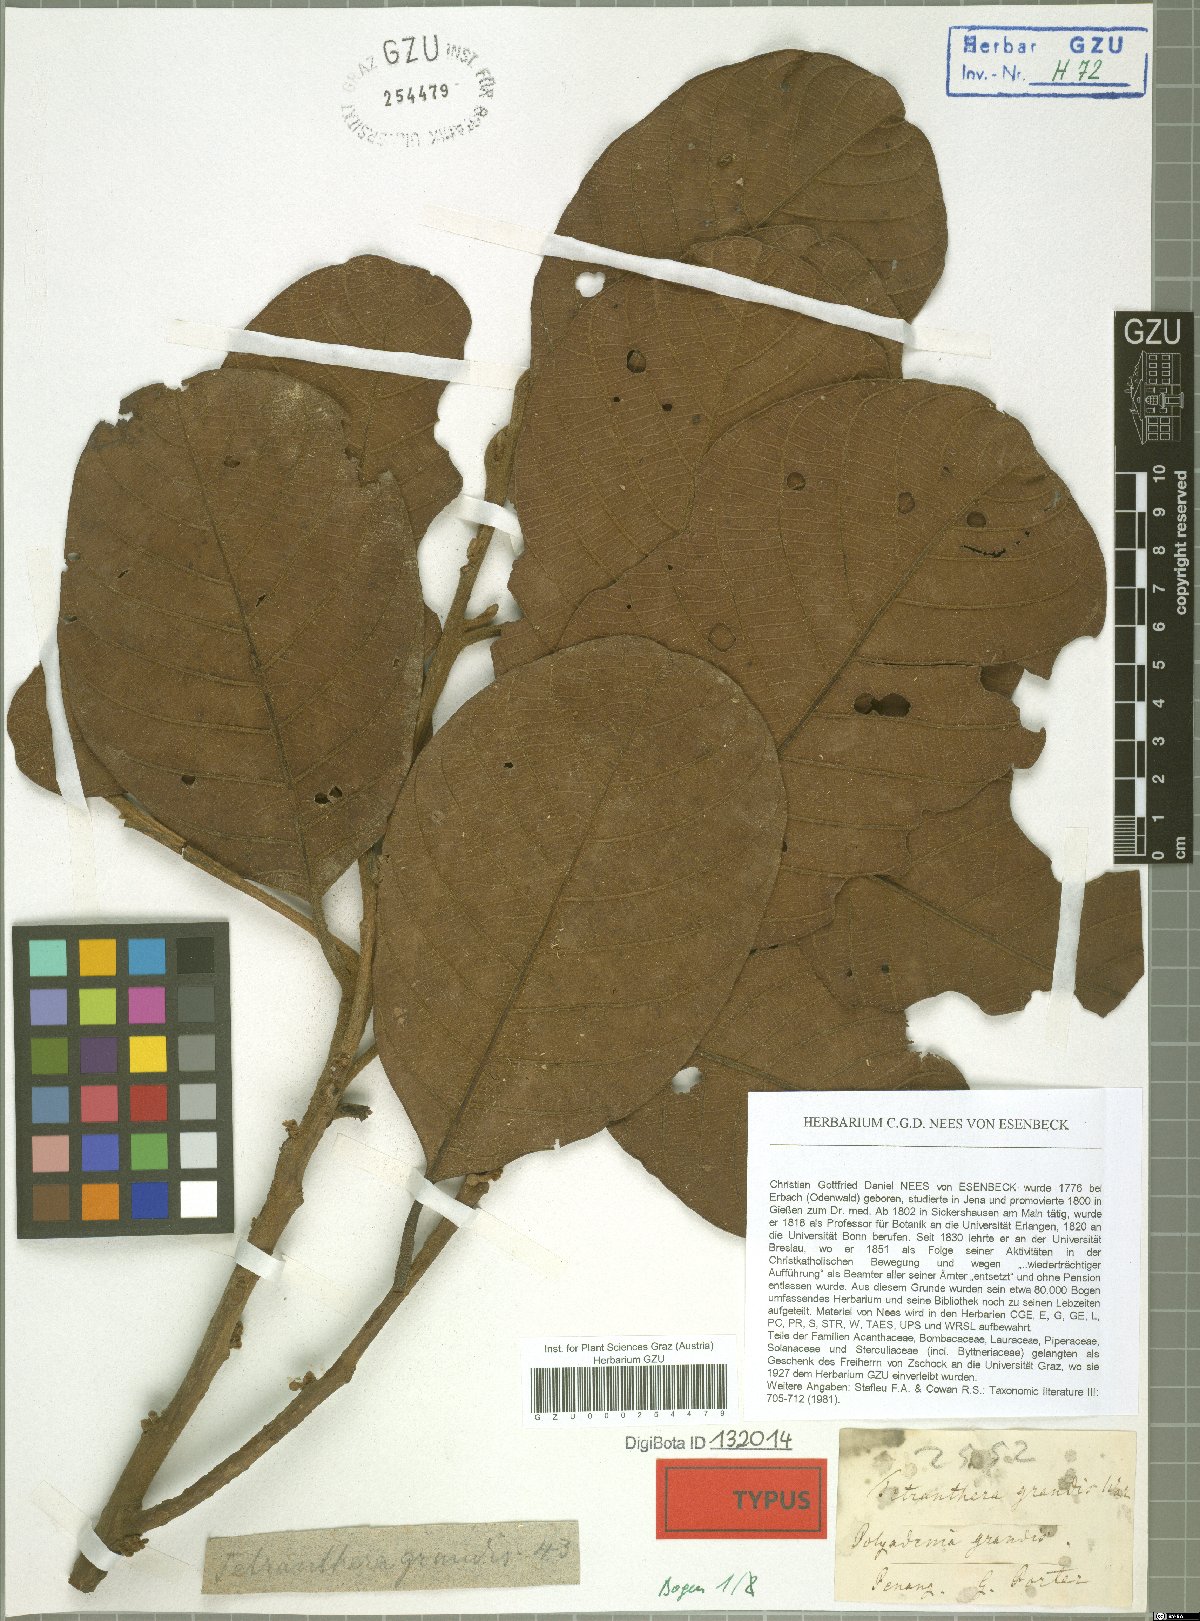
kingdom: Plantae
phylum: Tracheophyta
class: Magnoliopsida
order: Laurales
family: Lauraceae
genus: Litsea
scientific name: Litsea grandis
